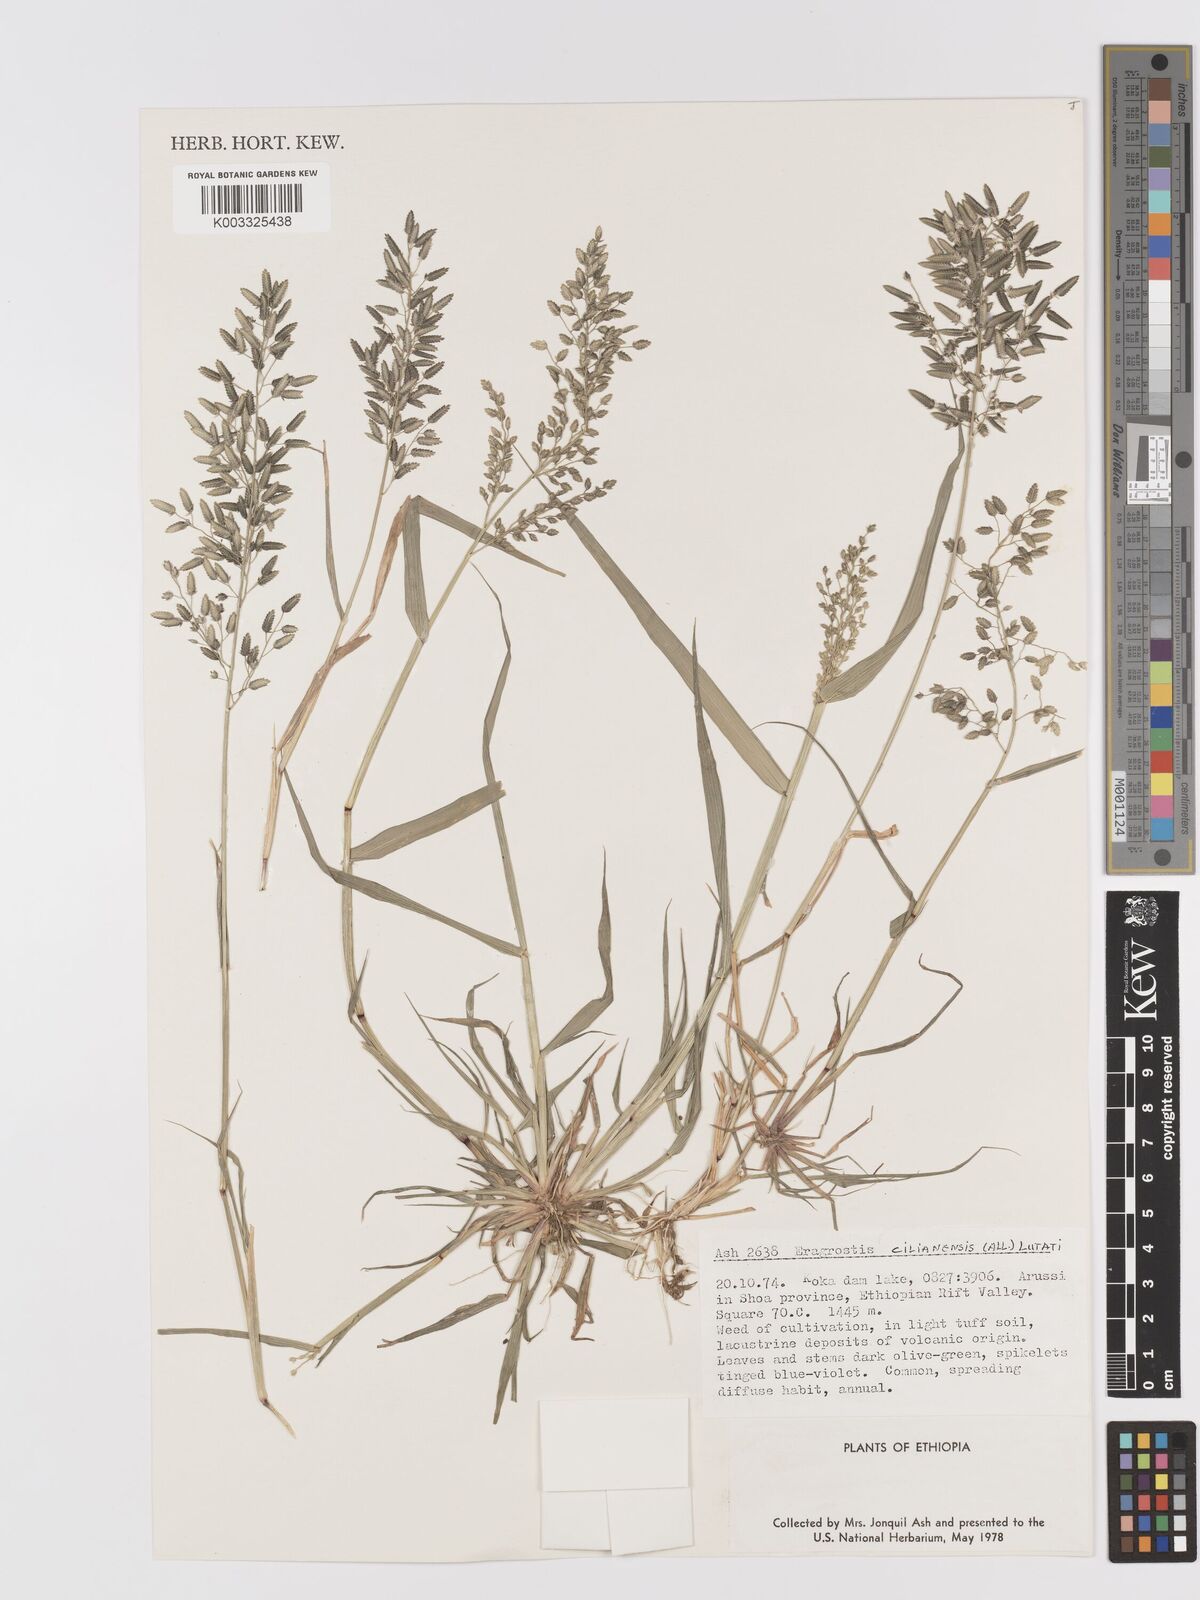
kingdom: Plantae
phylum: Tracheophyta
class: Liliopsida
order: Poales
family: Poaceae
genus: Eragrostis
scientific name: Eragrostis cilianensis
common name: Stinkgrass
